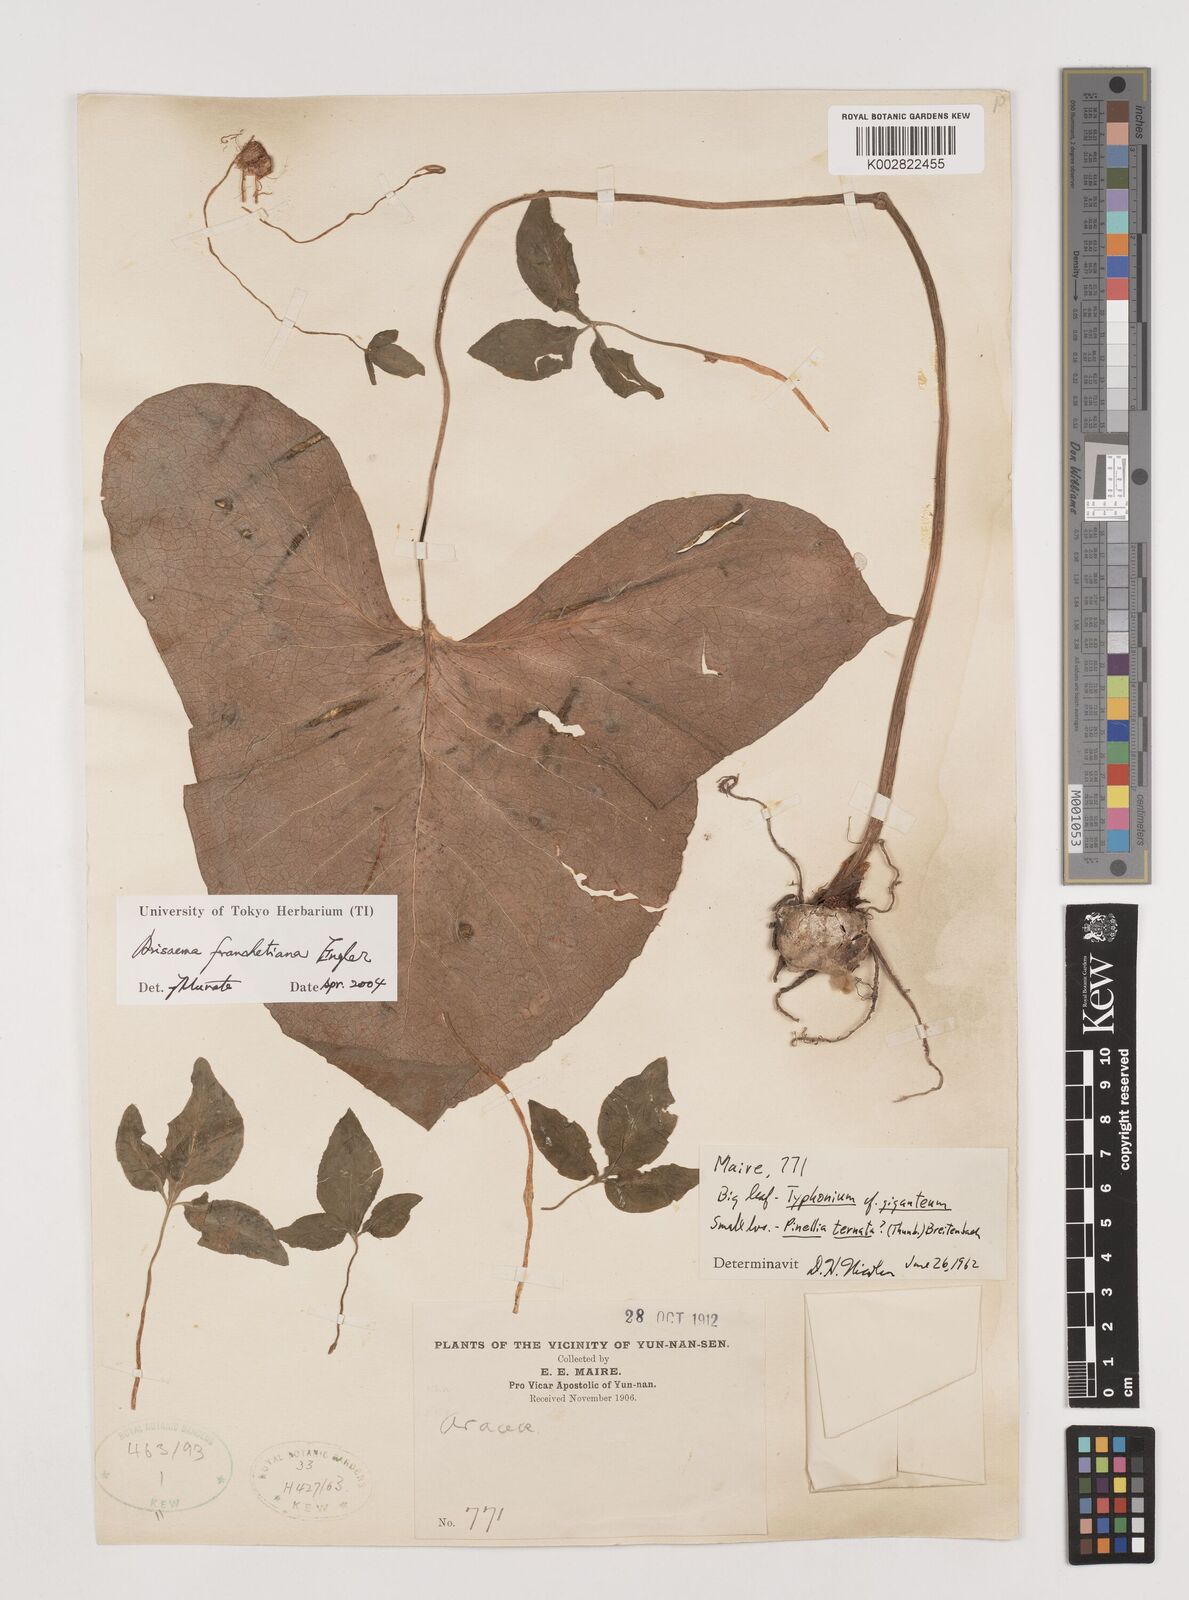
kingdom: Plantae
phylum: Tracheophyta
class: Liliopsida
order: Alismatales
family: Araceae
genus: Arisaema
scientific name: Arisaema franchetianum
